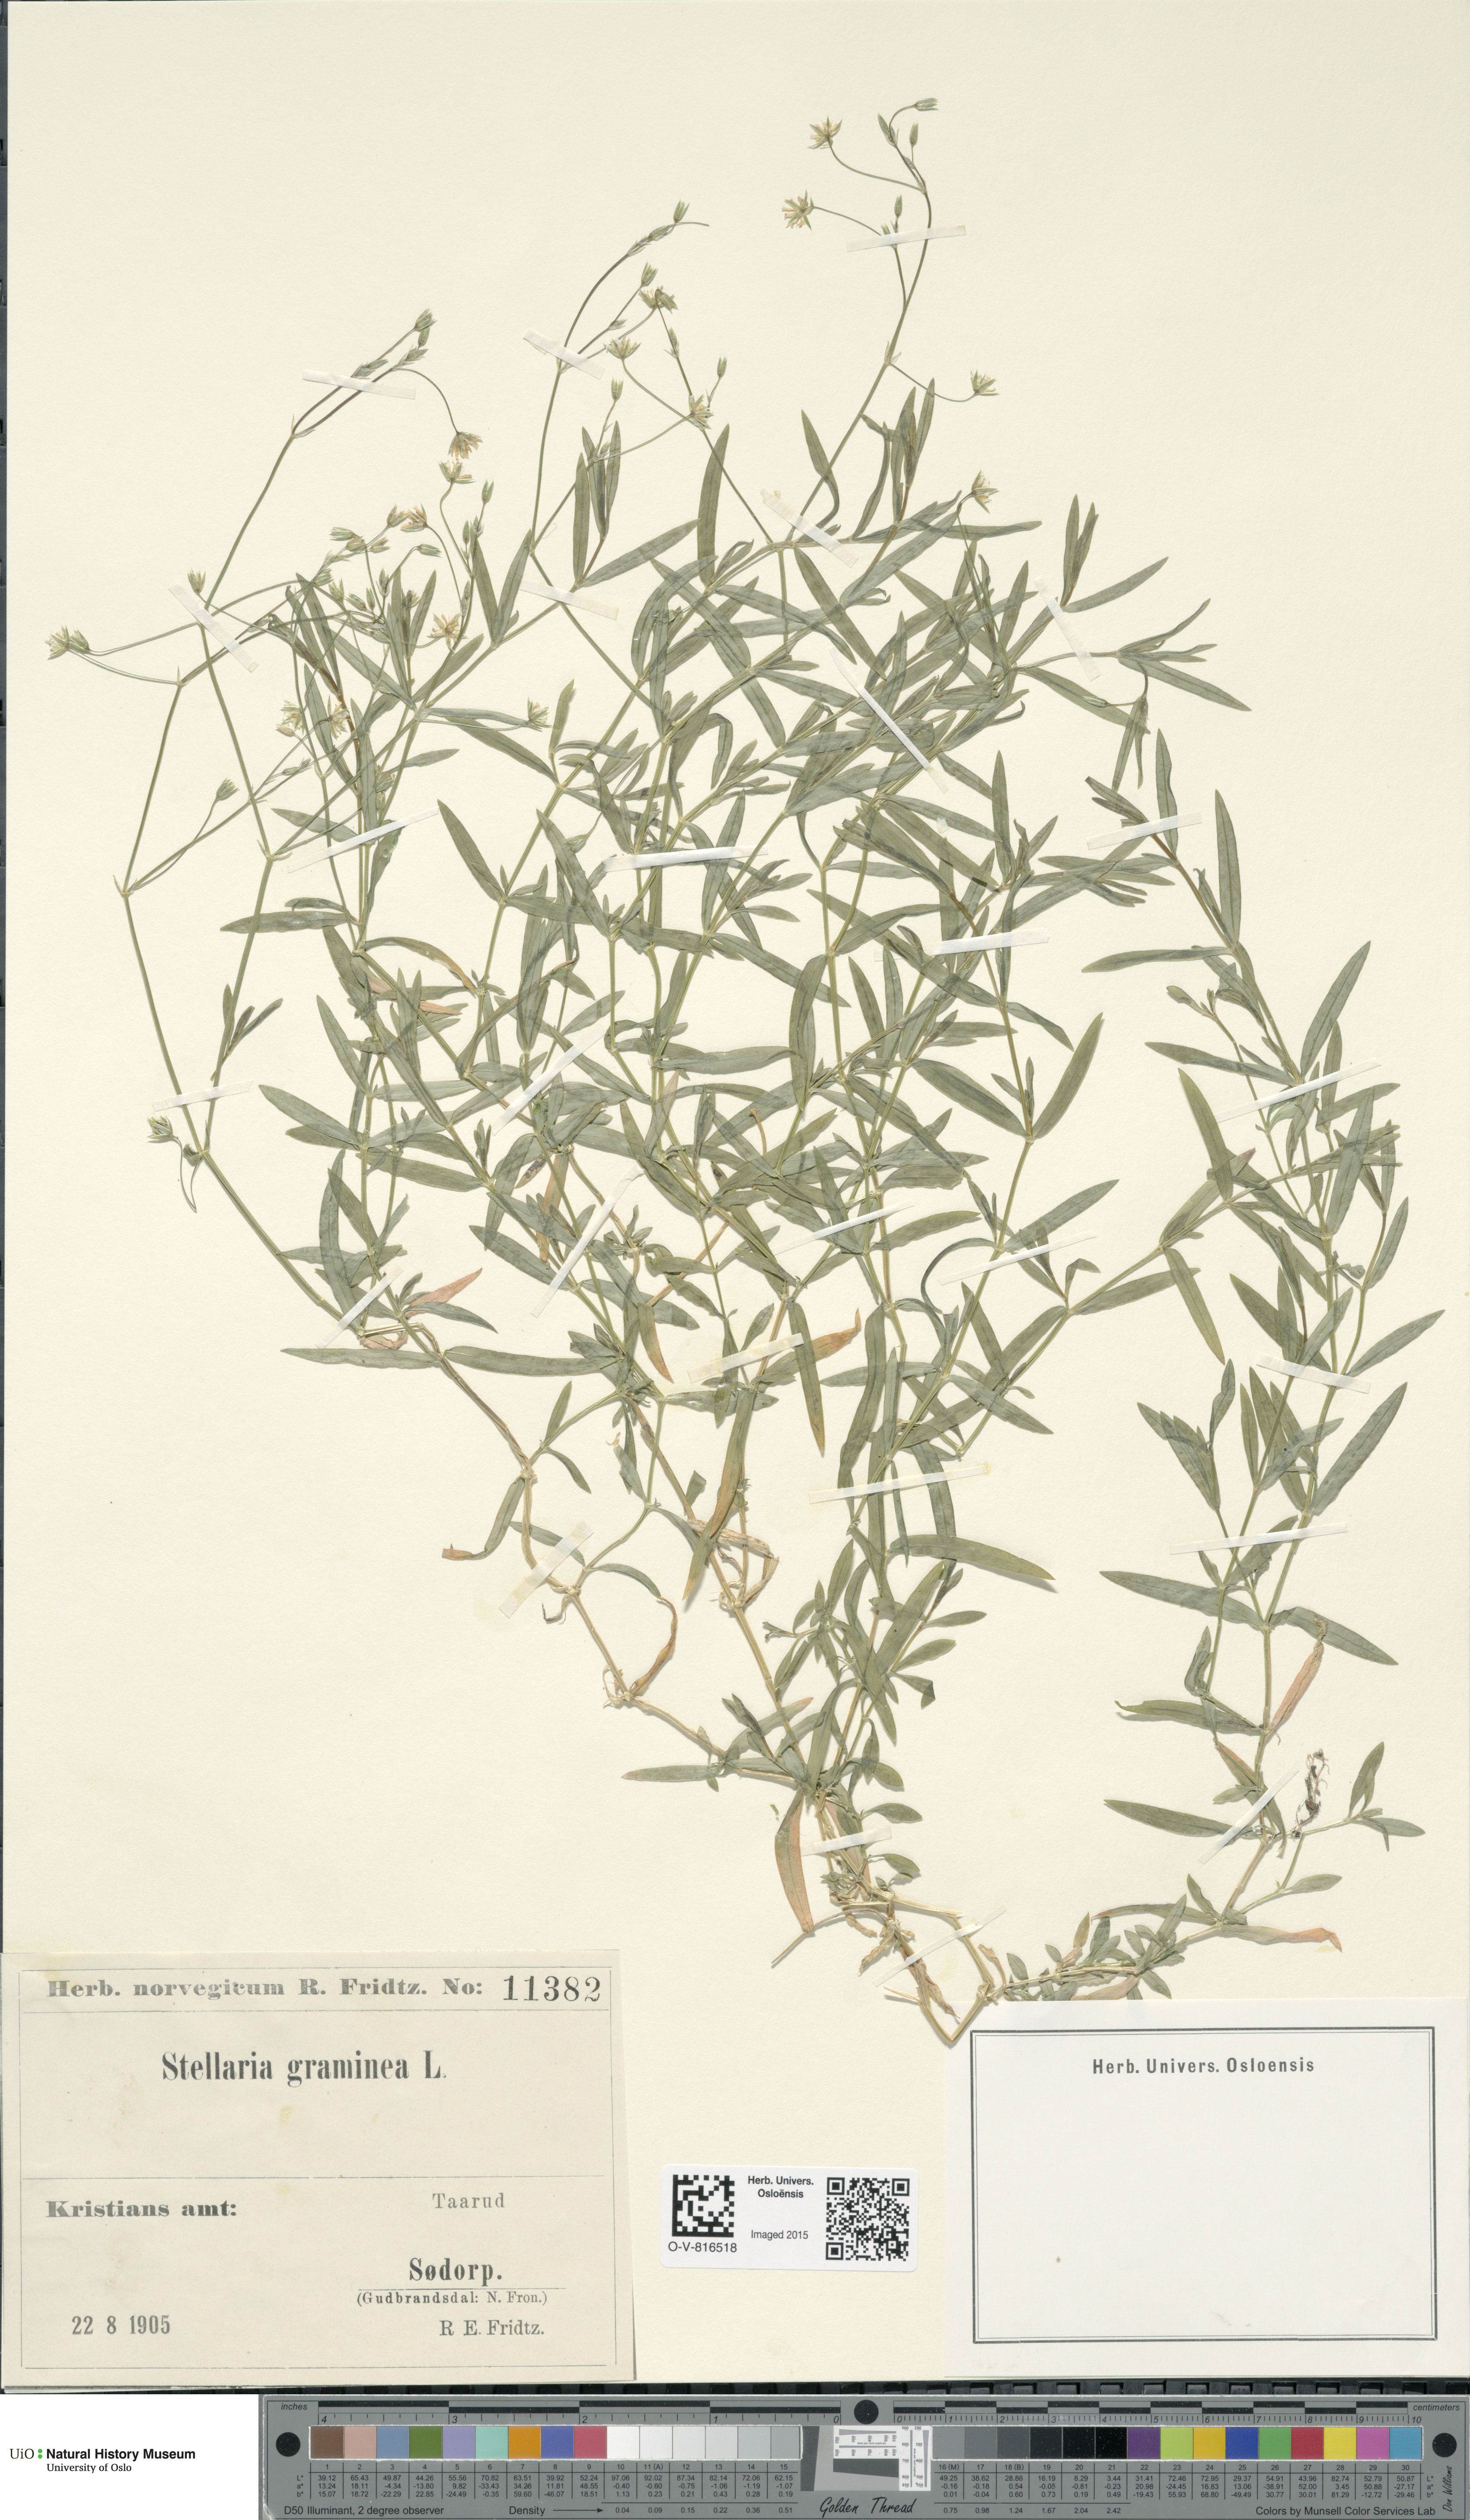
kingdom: Plantae
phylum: Tracheophyta
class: Magnoliopsida
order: Caryophyllales
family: Caryophyllaceae
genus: Stellaria
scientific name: Stellaria graminea
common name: Grass-like starwort
